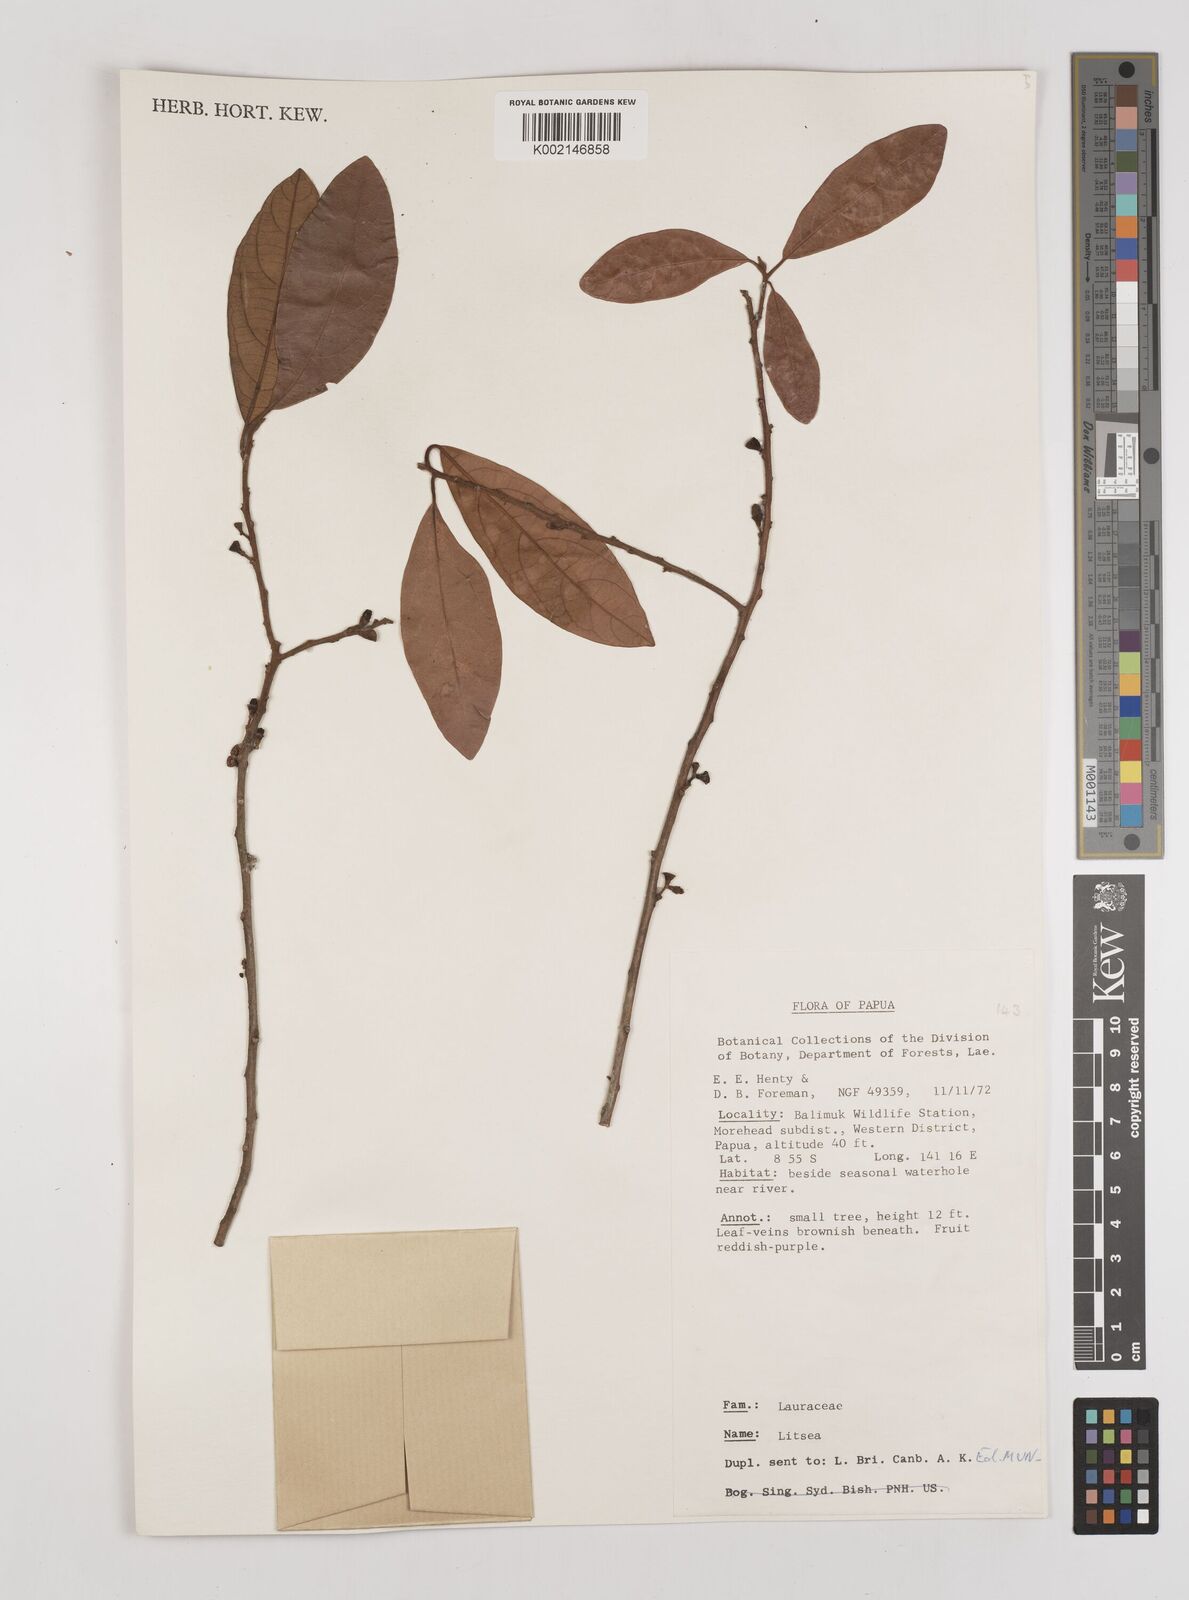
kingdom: Plantae
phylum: Tracheophyta
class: Magnoliopsida
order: Laurales
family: Lauraceae
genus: Litsea
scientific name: Litsea
